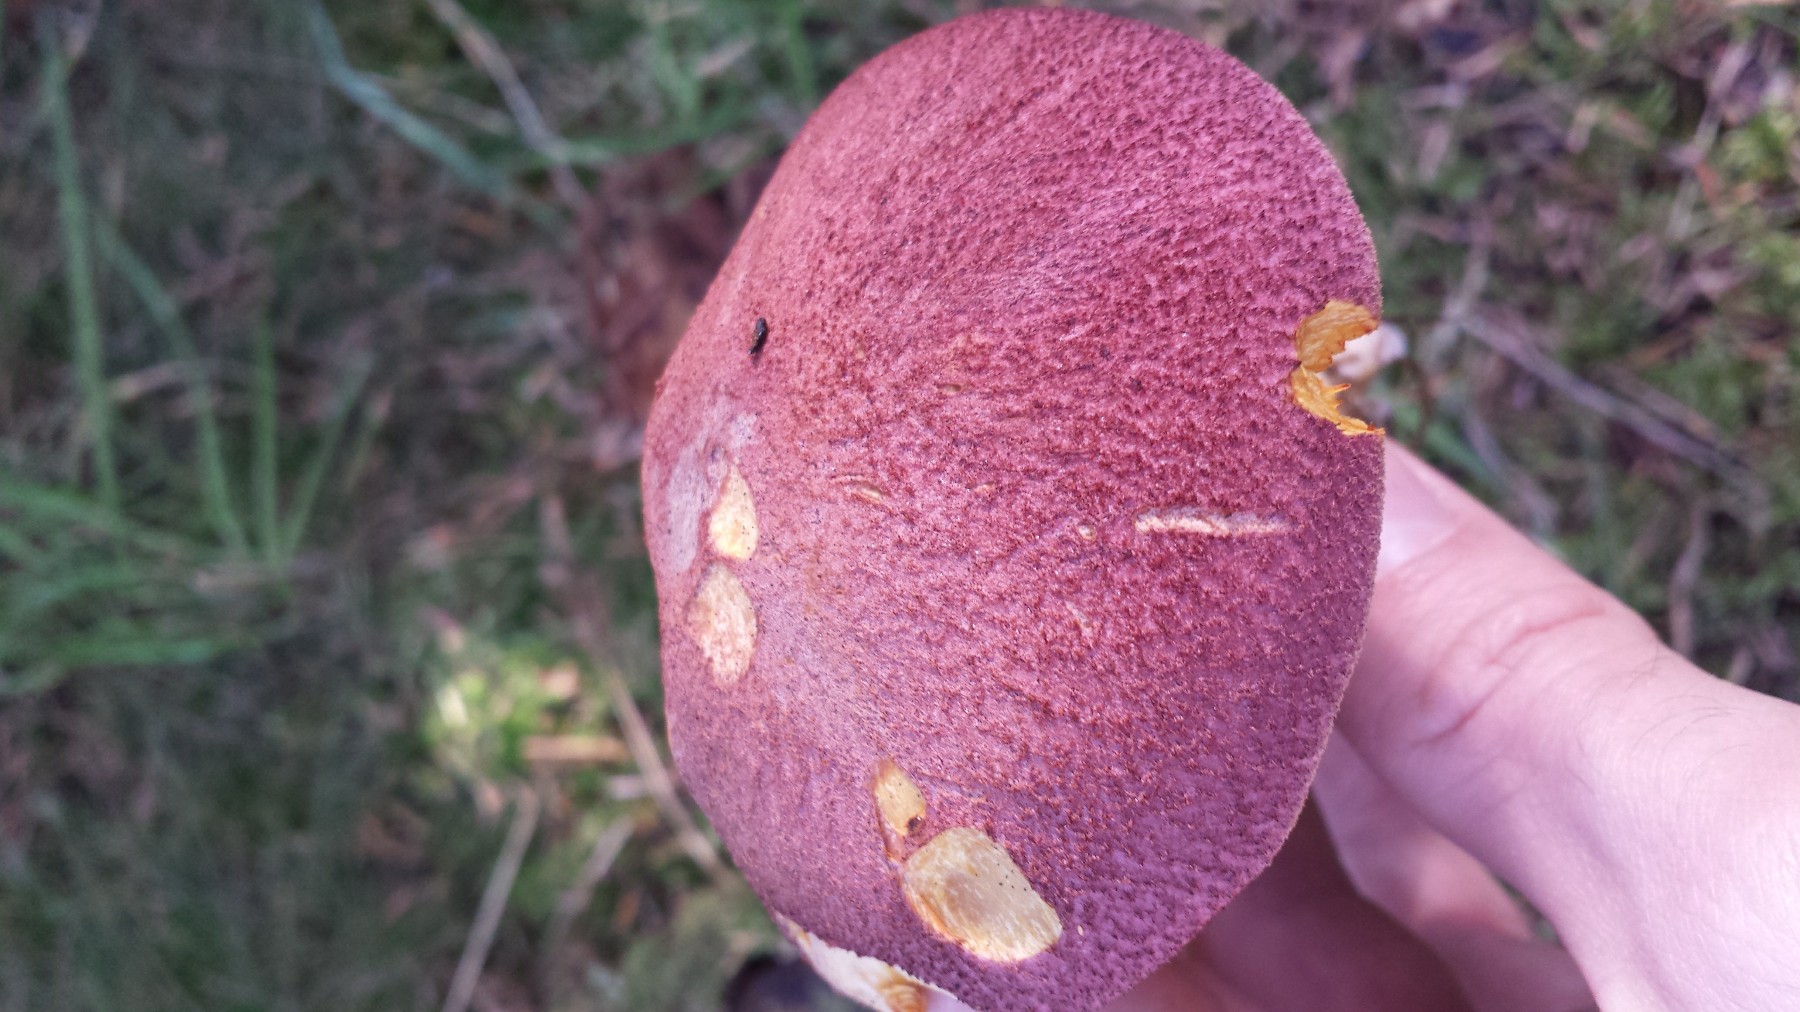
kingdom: Fungi
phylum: Basidiomycota
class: Agaricomycetes
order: Agaricales
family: Tricholomataceae
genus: Tricholomopsis
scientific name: Tricholomopsis rutilans
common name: purpur-væbnerhat
